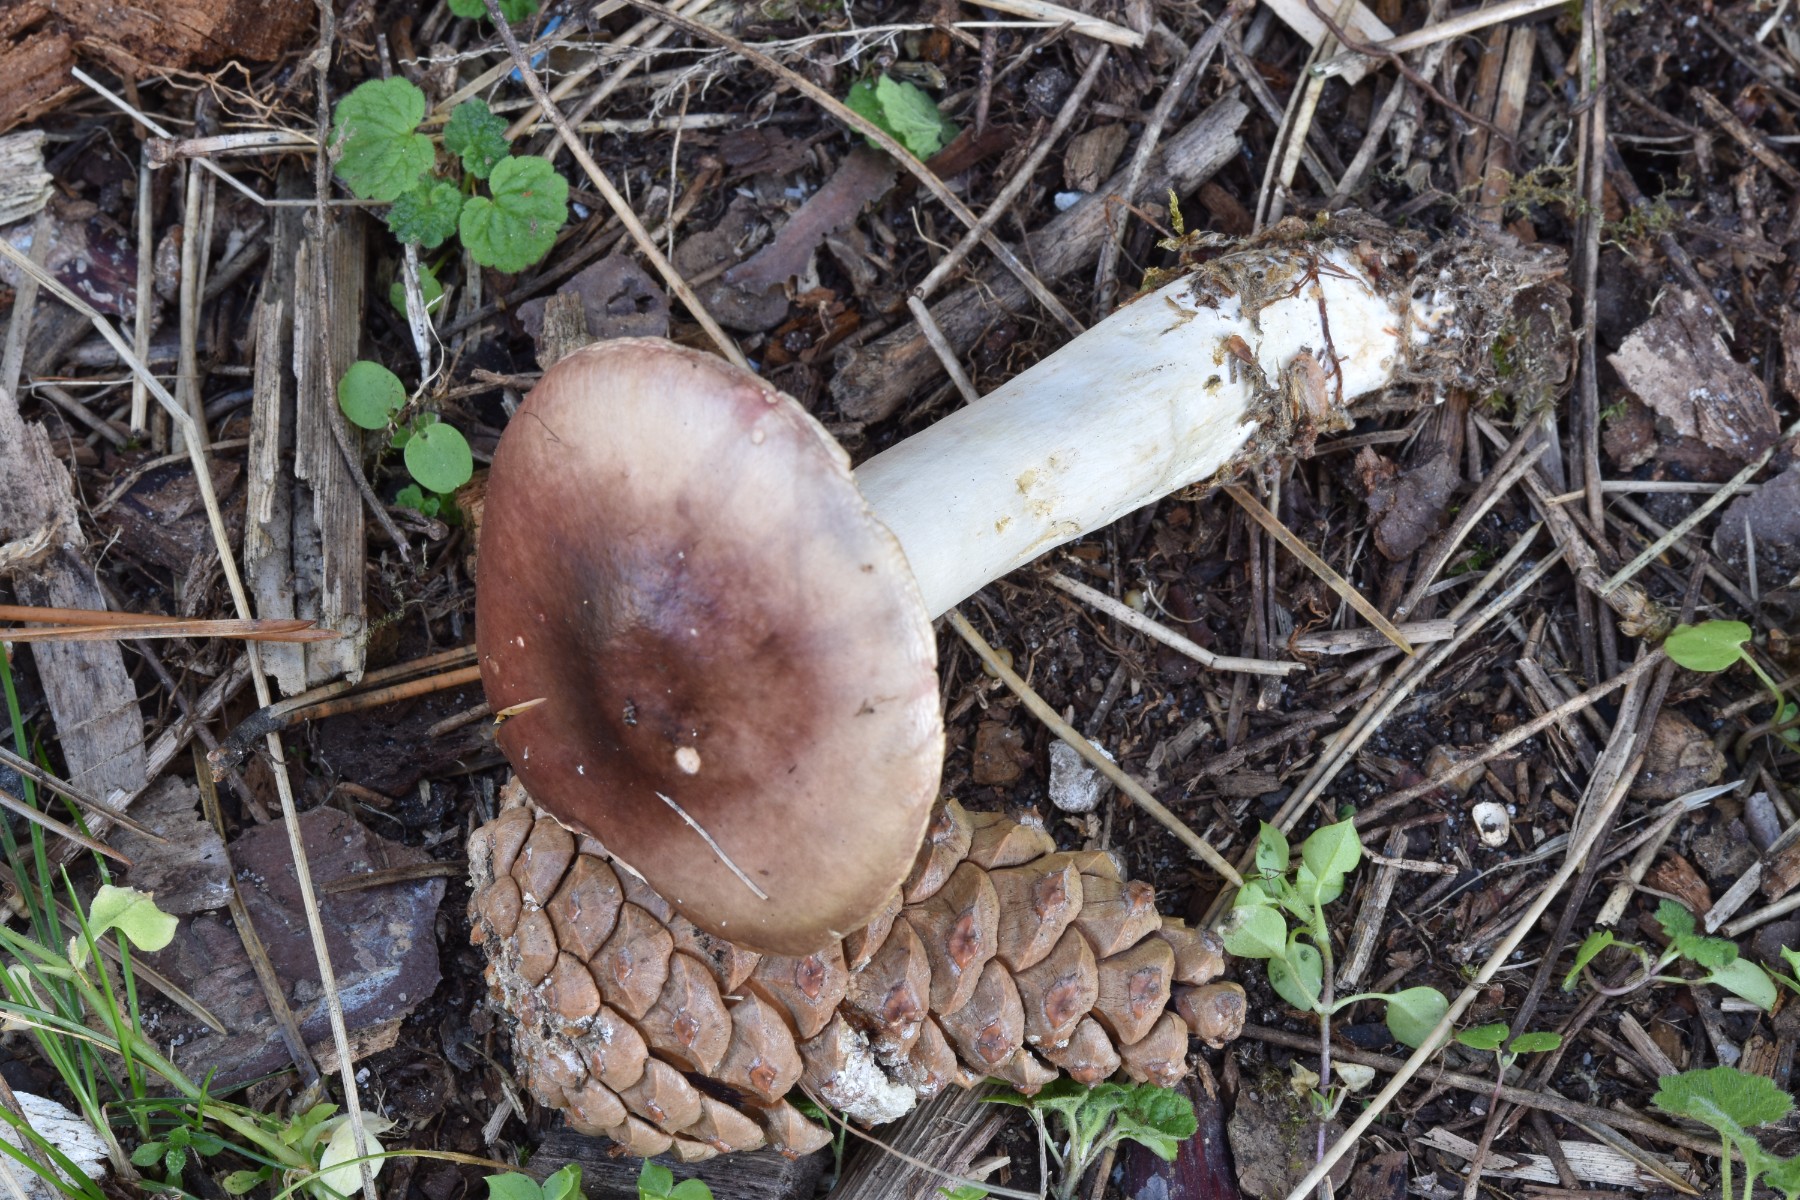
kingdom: Fungi
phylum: Basidiomycota
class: Agaricomycetes
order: Russulales
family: Russulaceae
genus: Russula
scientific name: Russula sardonia
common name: citronbladet skørhat
